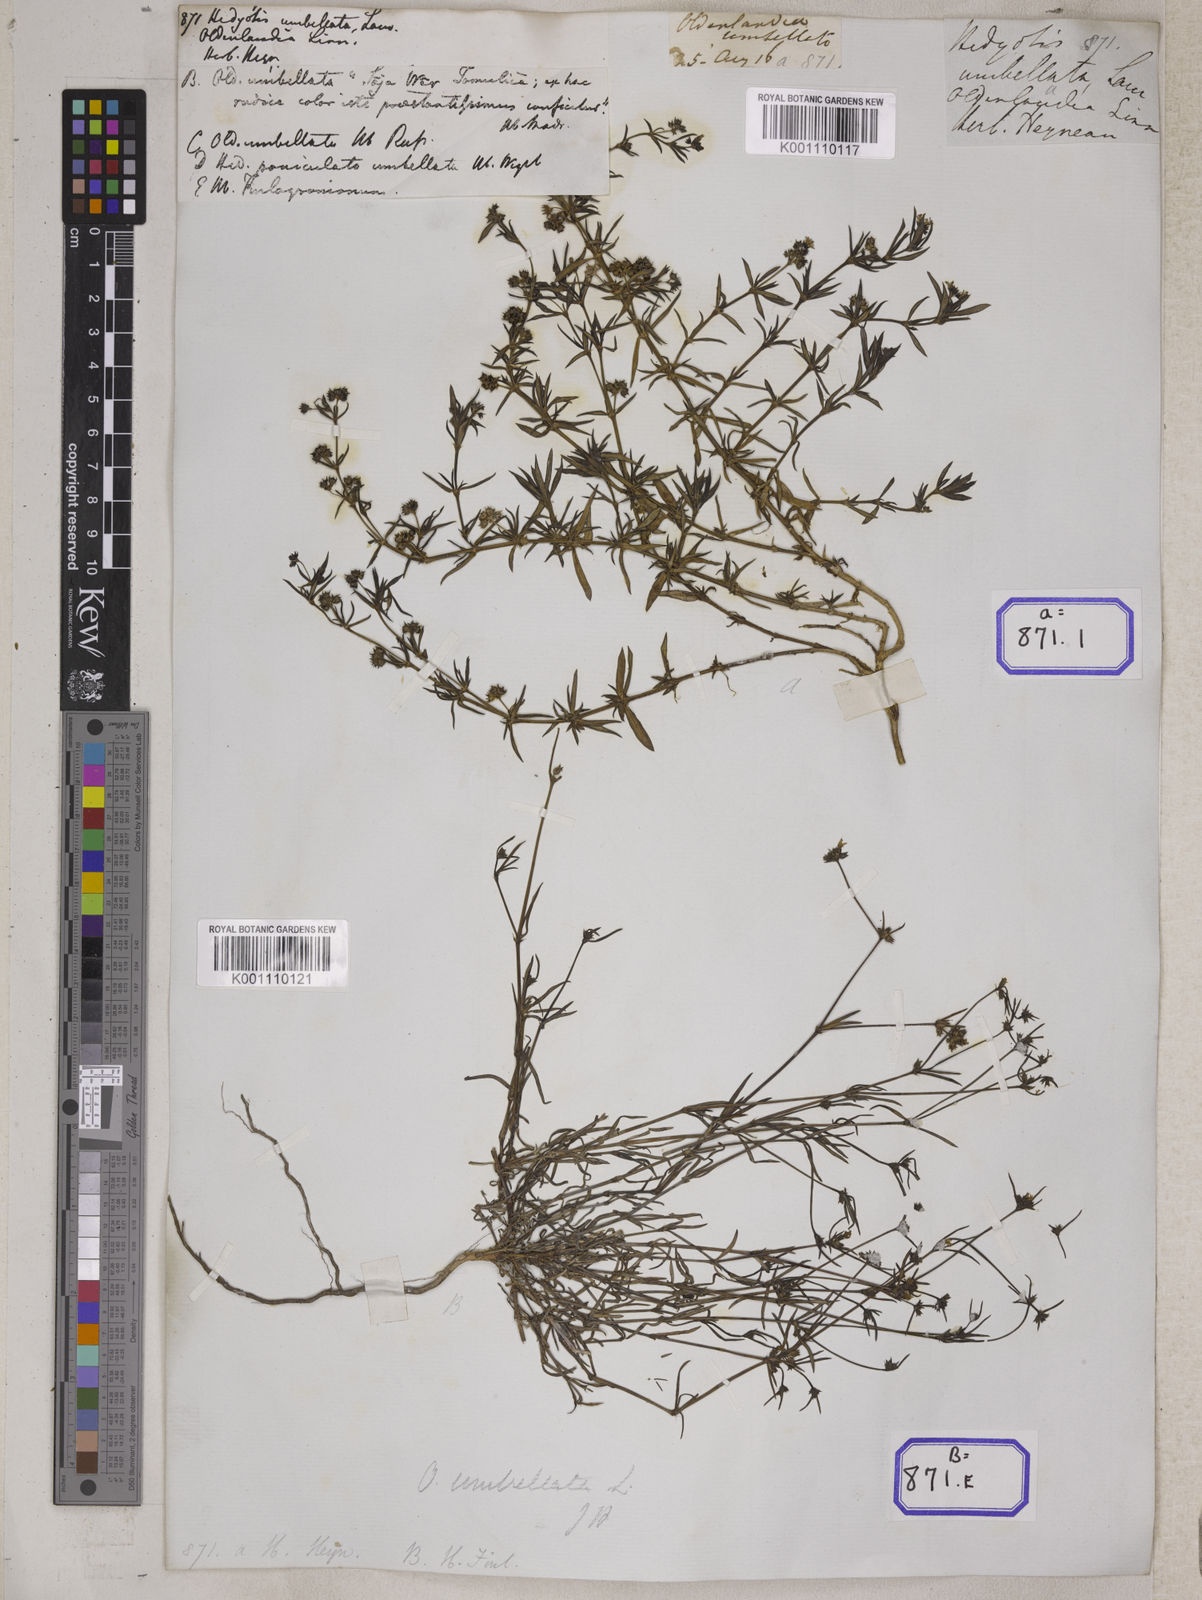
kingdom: Plantae
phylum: Tracheophyta
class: Magnoliopsida
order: Gentianales
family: Rubiaceae
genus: Oldenlandia
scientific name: Oldenlandia umbellata
